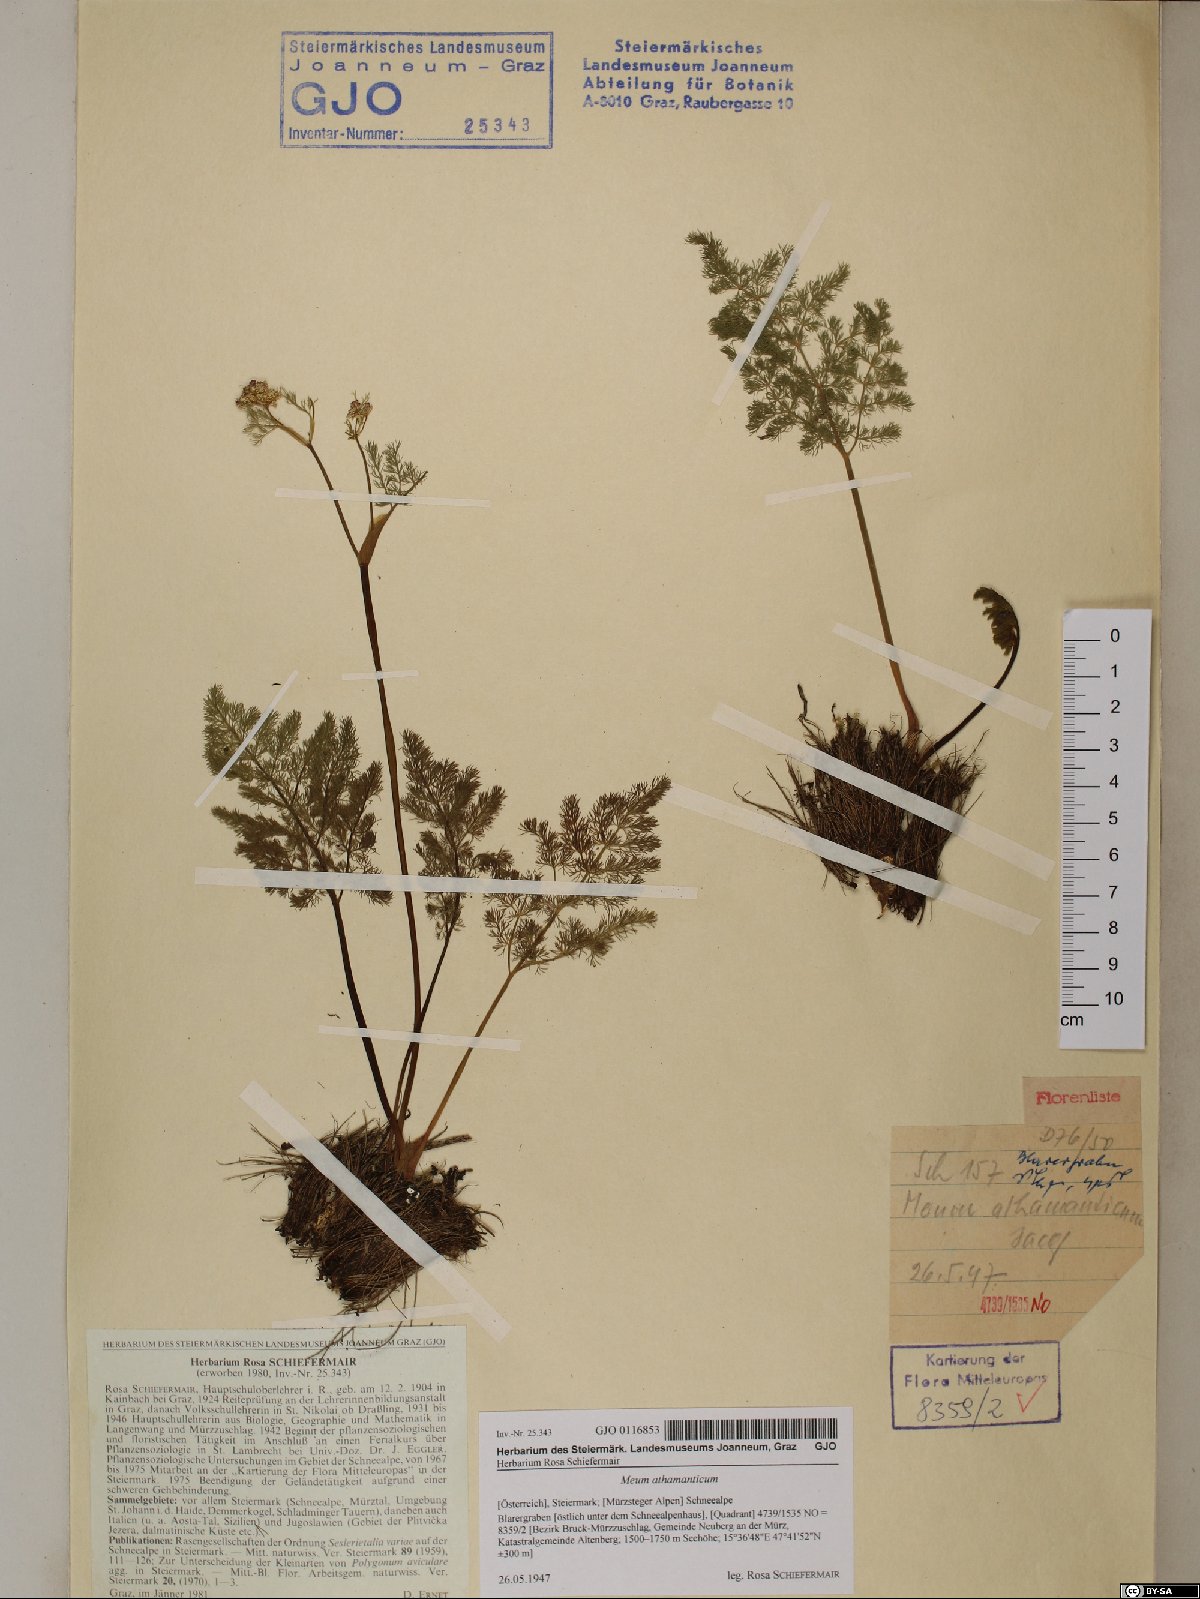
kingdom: Plantae
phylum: Tracheophyta
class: Magnoliopsida
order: Apiales
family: Apiaceae
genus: Meum
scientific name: Meum athamanticum
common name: Spignel
